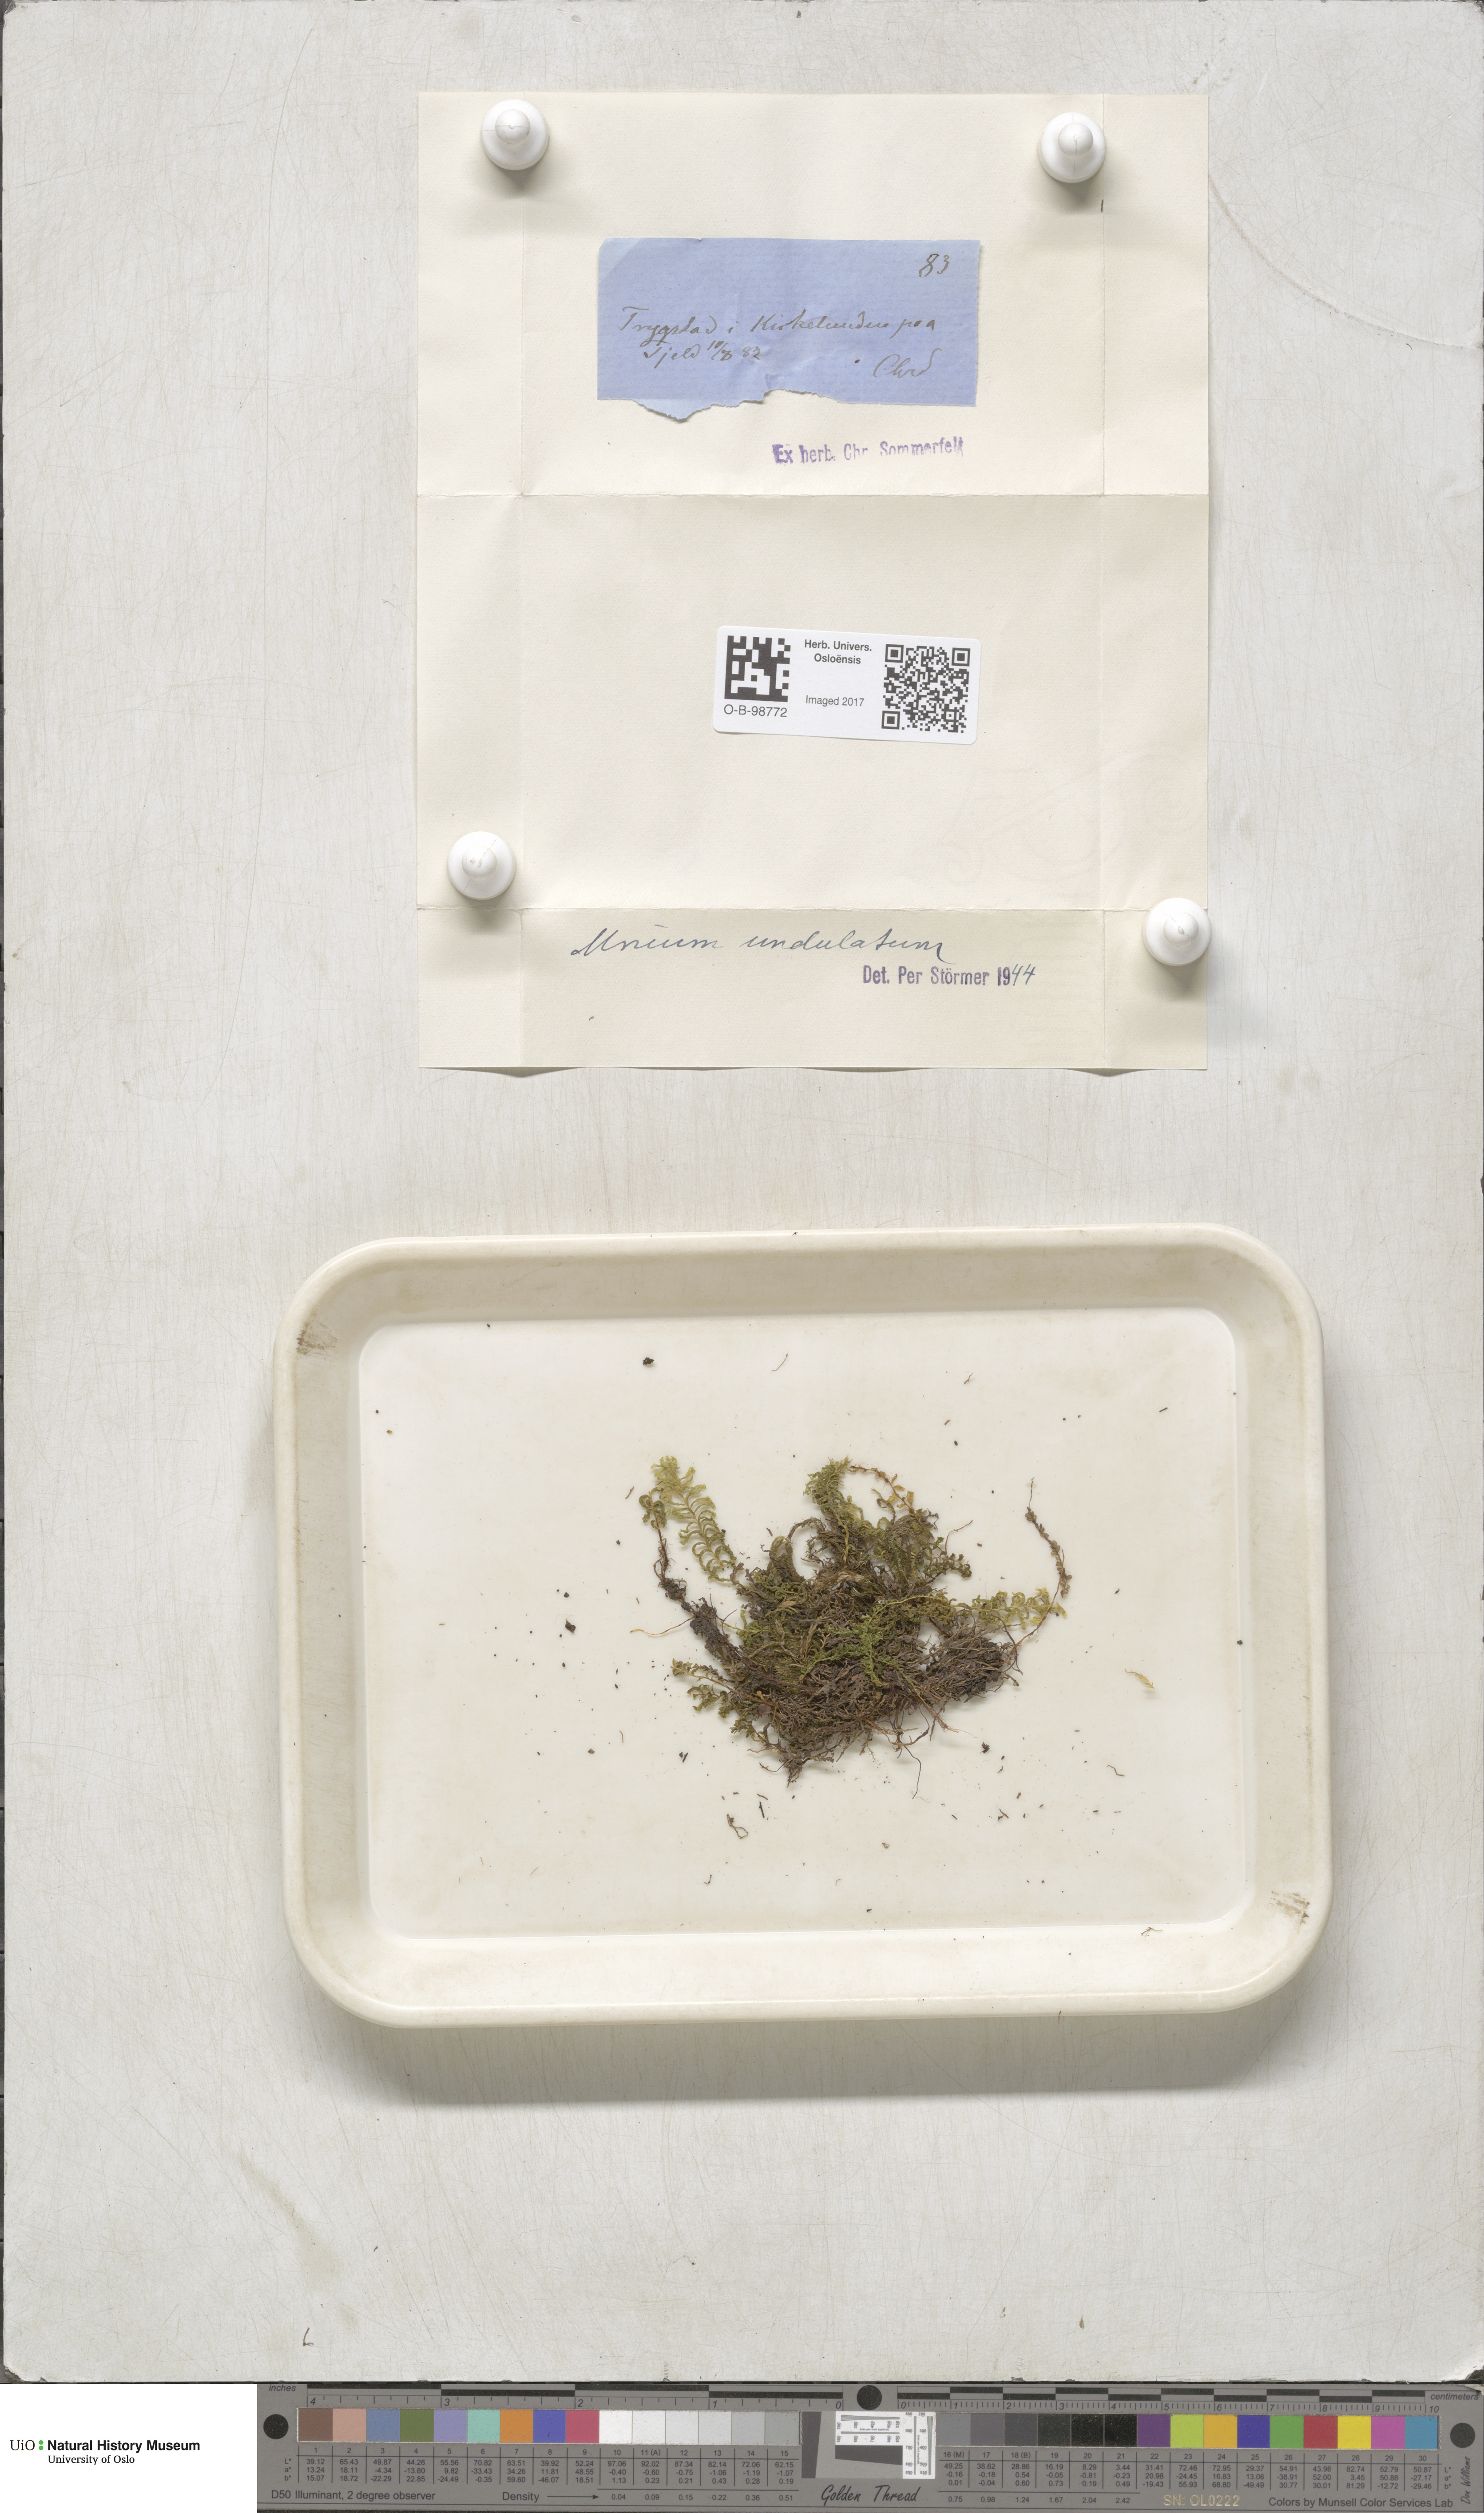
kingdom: Plantae
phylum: Bryophyta
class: Bryopsida
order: Bryales
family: Mniaceae
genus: Plagiomnium
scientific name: Plagiomnium undulatum
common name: Hart's-tongue thyme-moss
